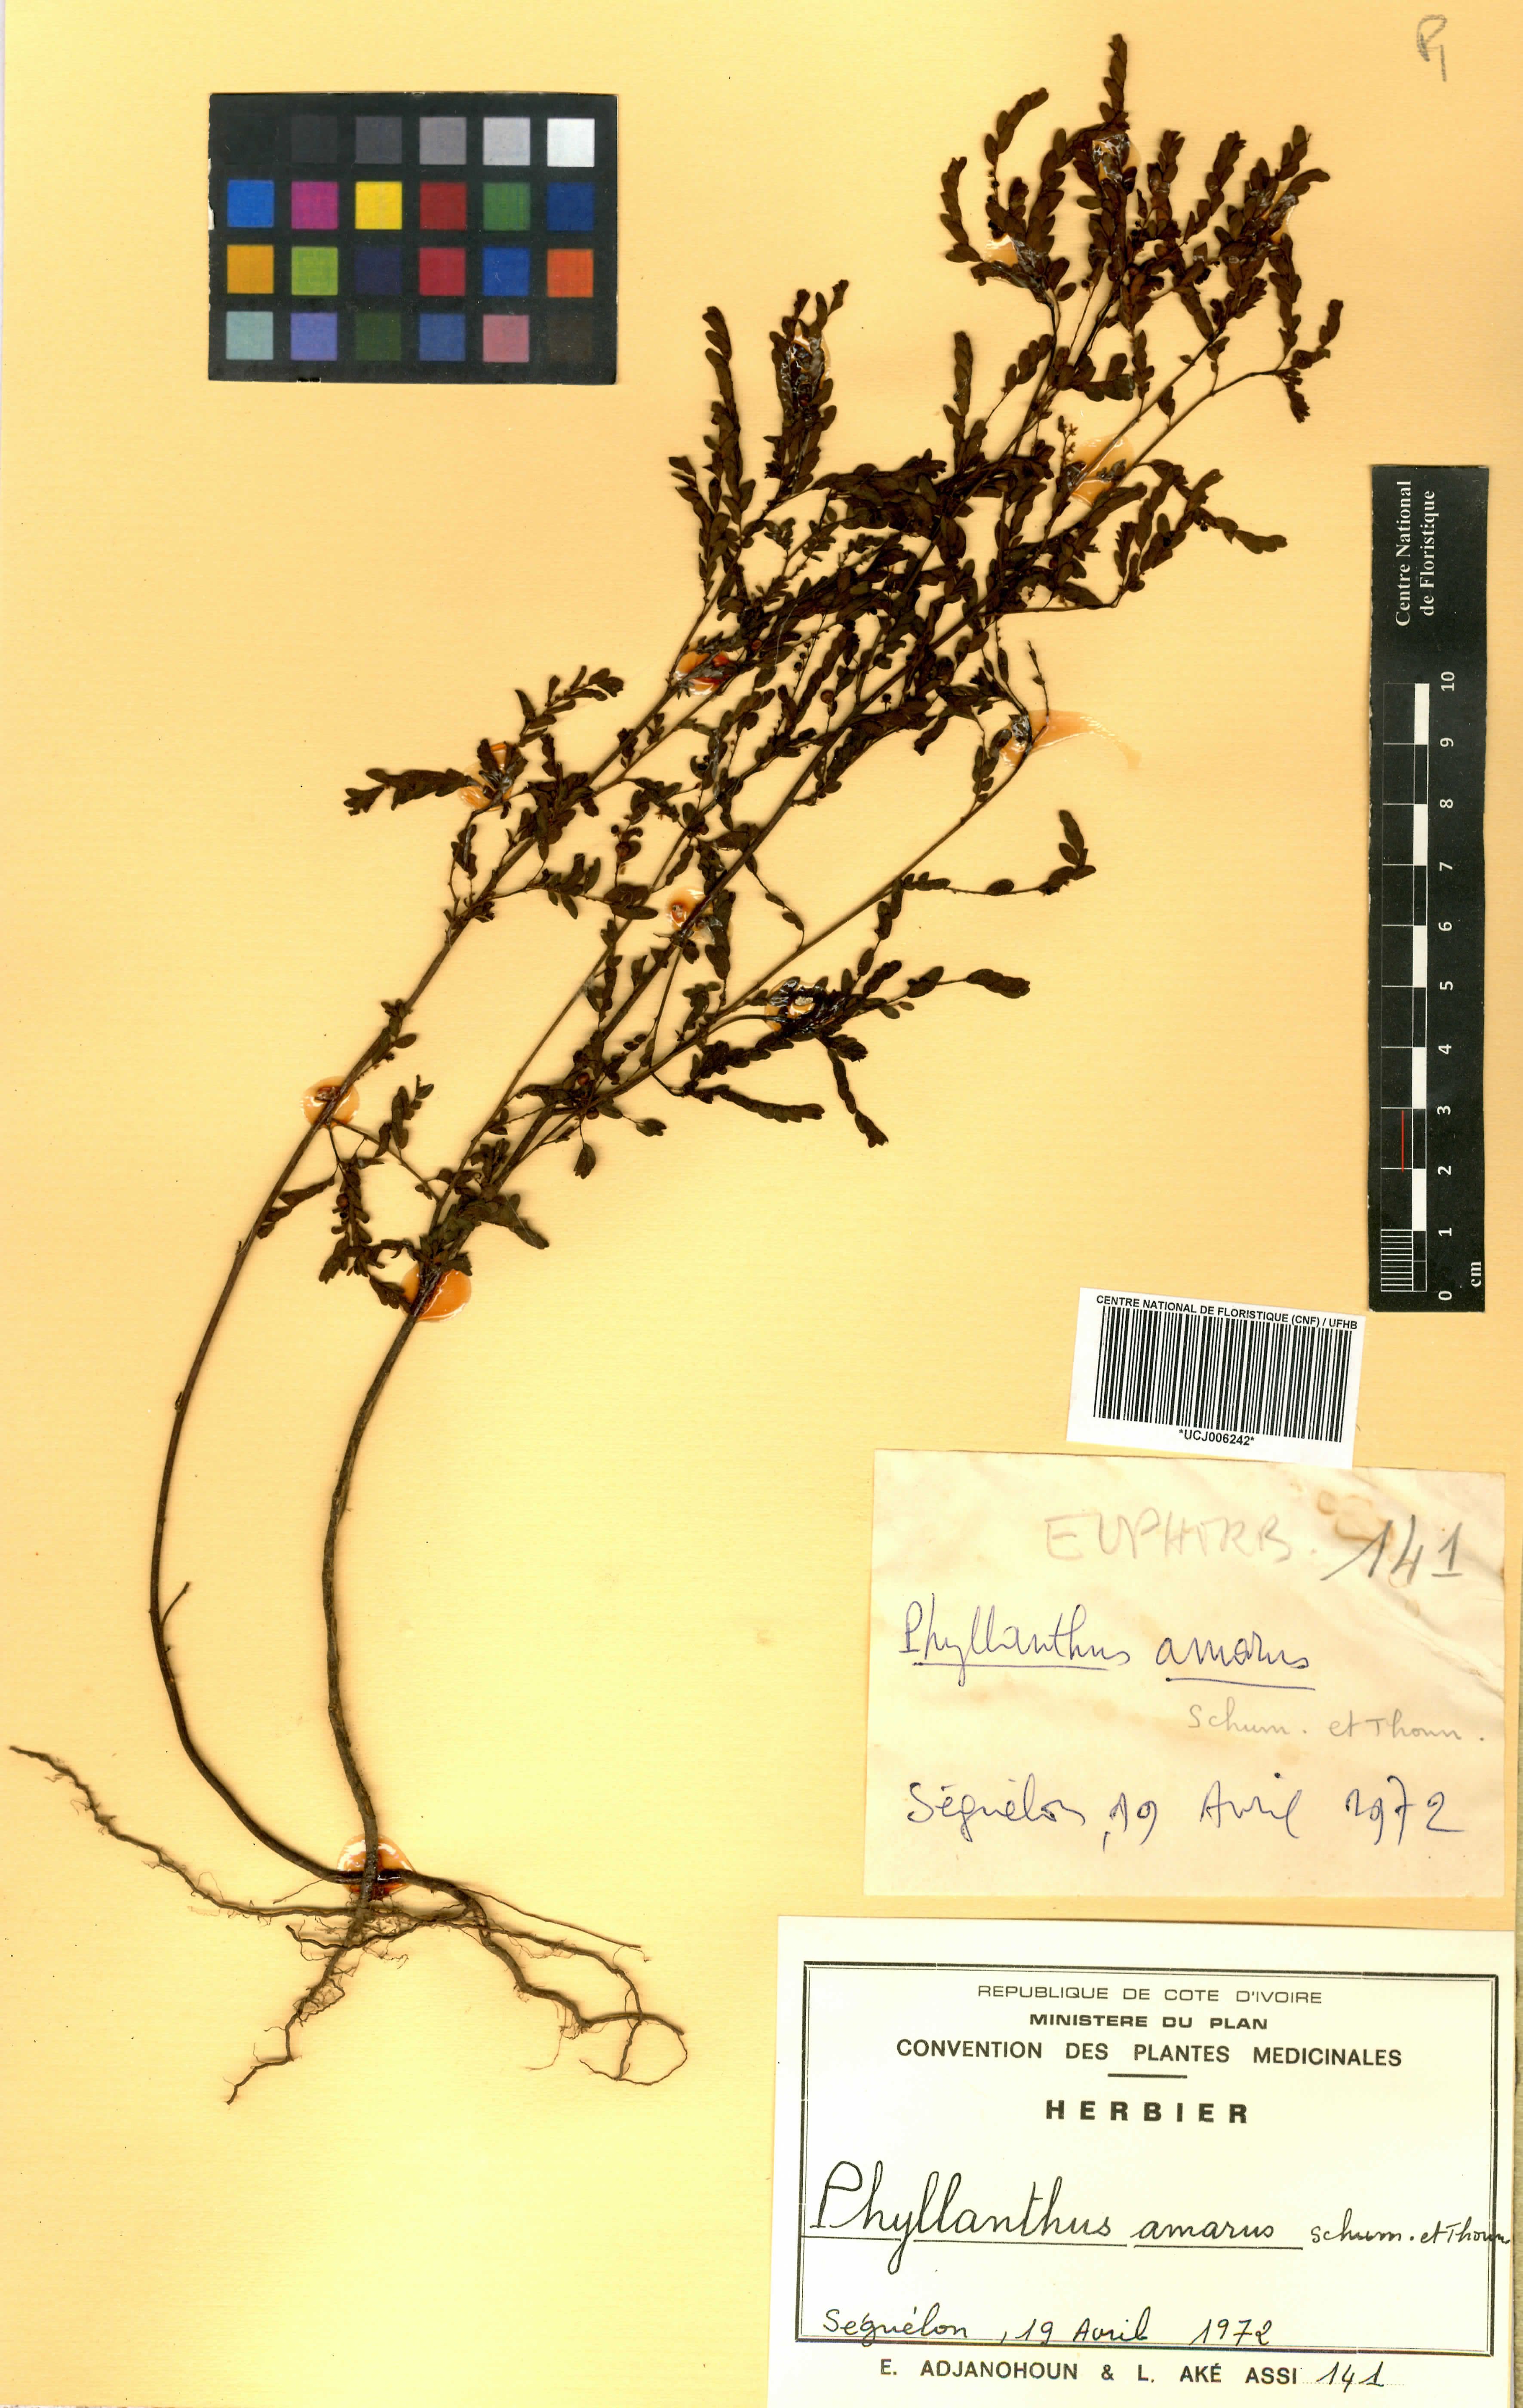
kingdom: Plantae
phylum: Tracheophyta
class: Magnoliopsida
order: Malpighiales
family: Phyllanthaceae
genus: Phyllanthus
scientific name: Phyllanthus amarus
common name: Carry me seed
